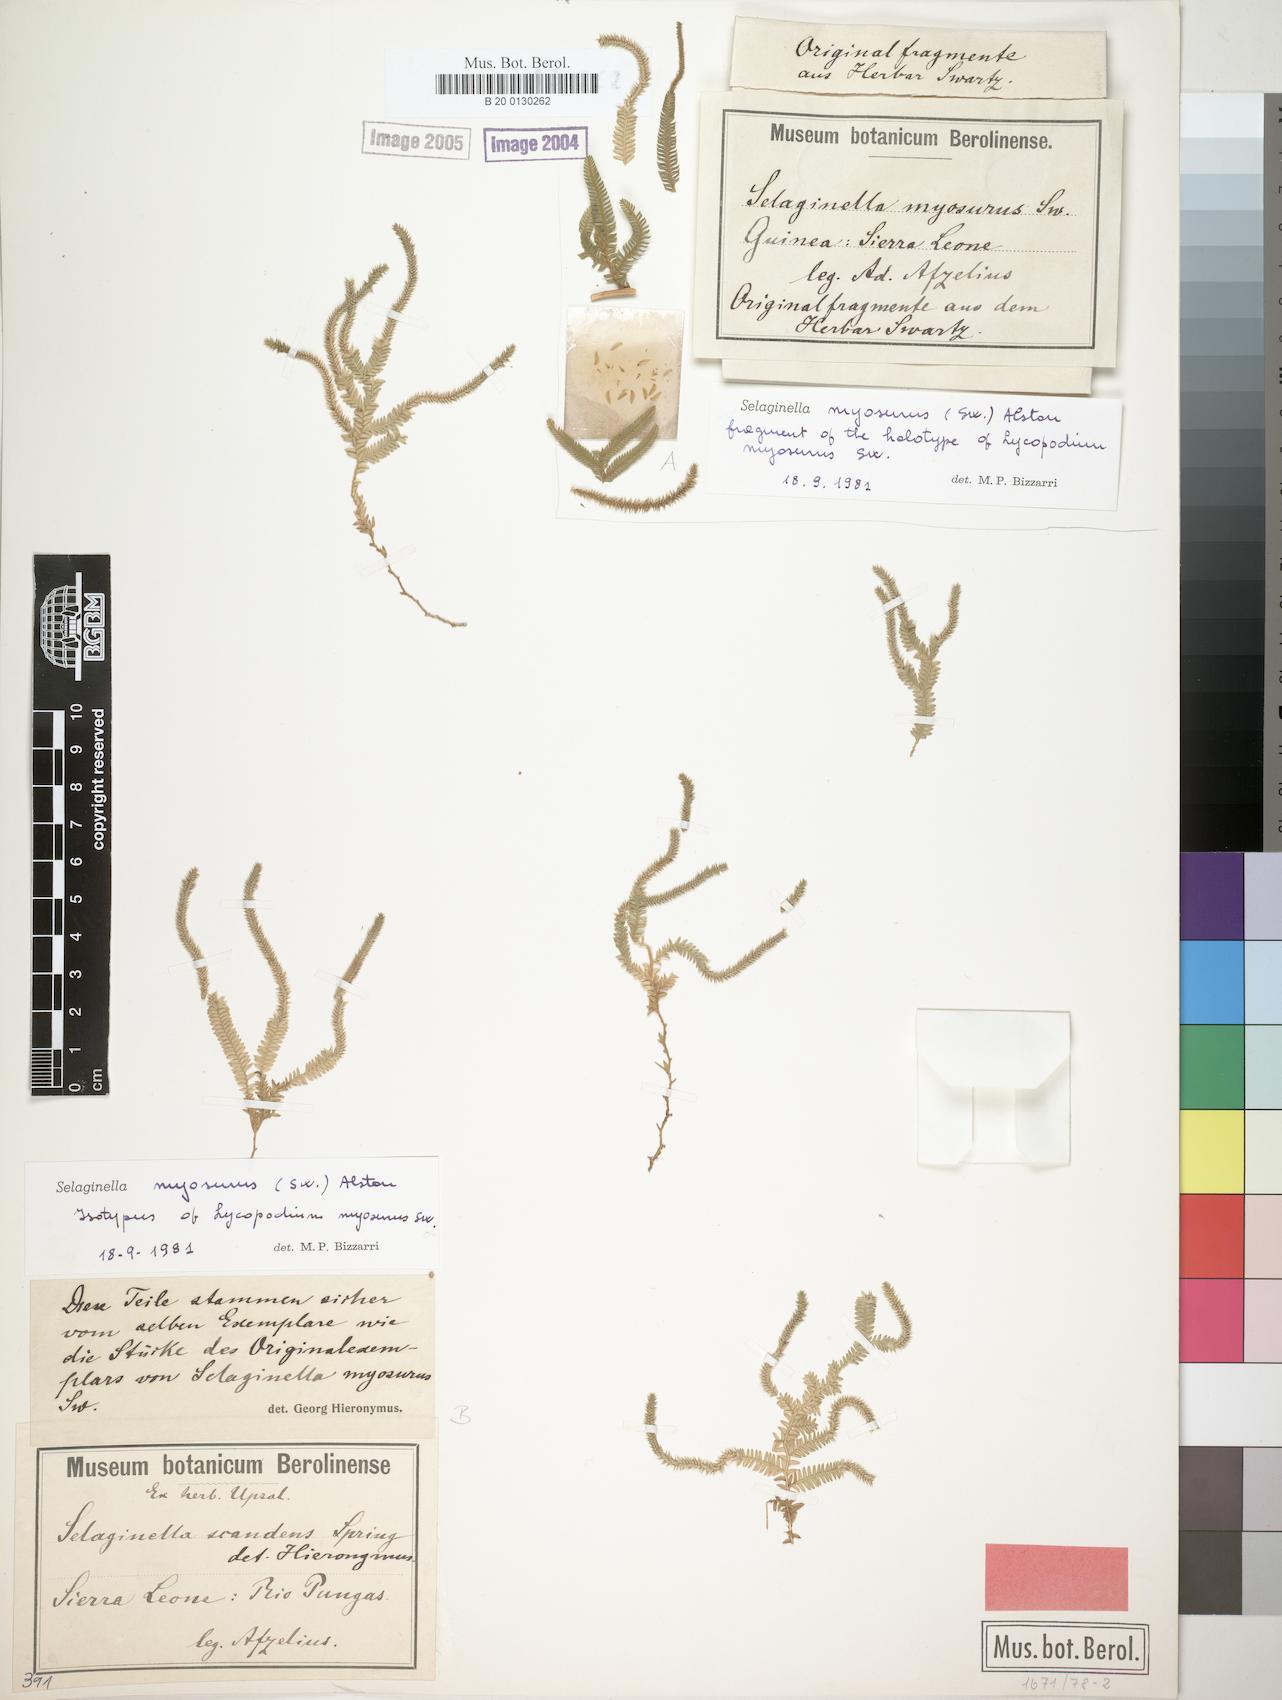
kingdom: Plantae
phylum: Tracheophyta
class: Lycopodiopsida
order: Selaginellales
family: Selaginellaceae
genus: Selaginella
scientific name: Selaginella myosurus
